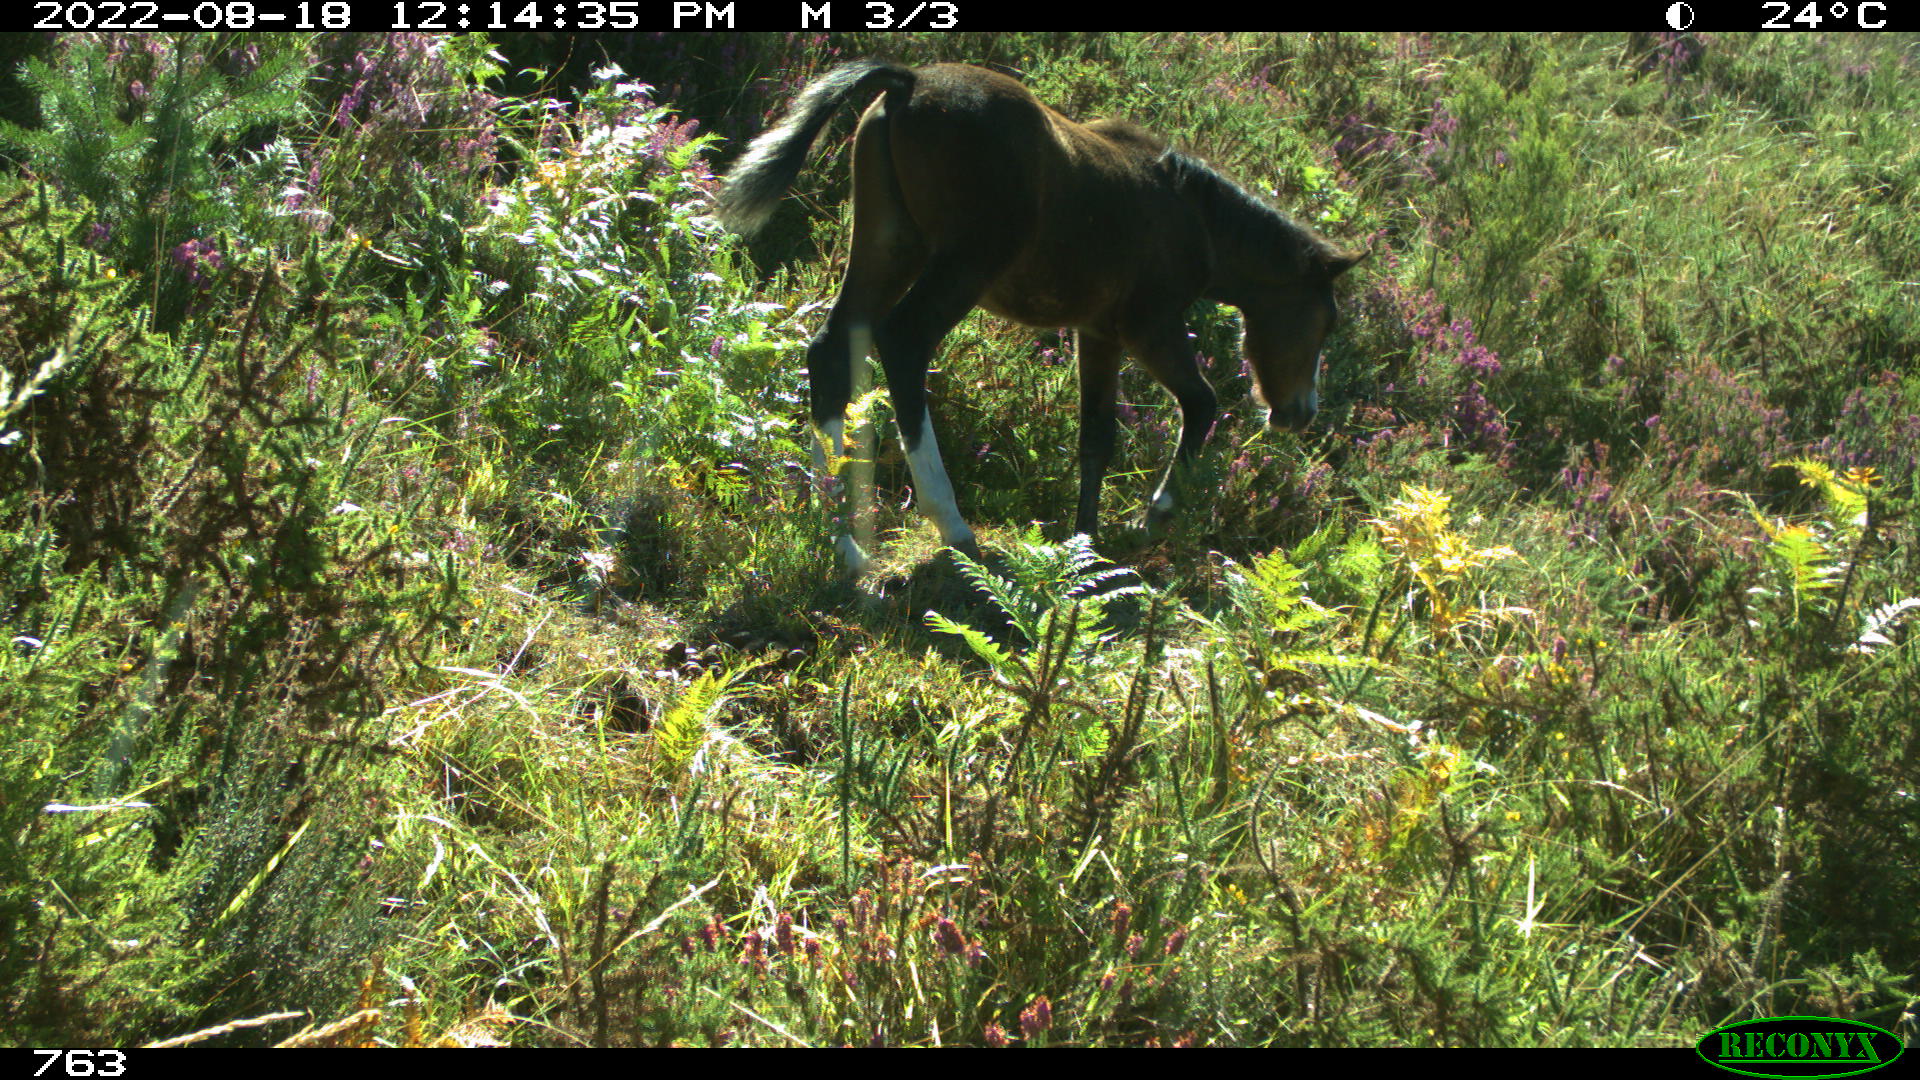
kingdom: Animalia
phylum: Chordata
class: Mammalia
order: Perissodactyla
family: Equidae
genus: Equus
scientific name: Equus caballus
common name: Horse
